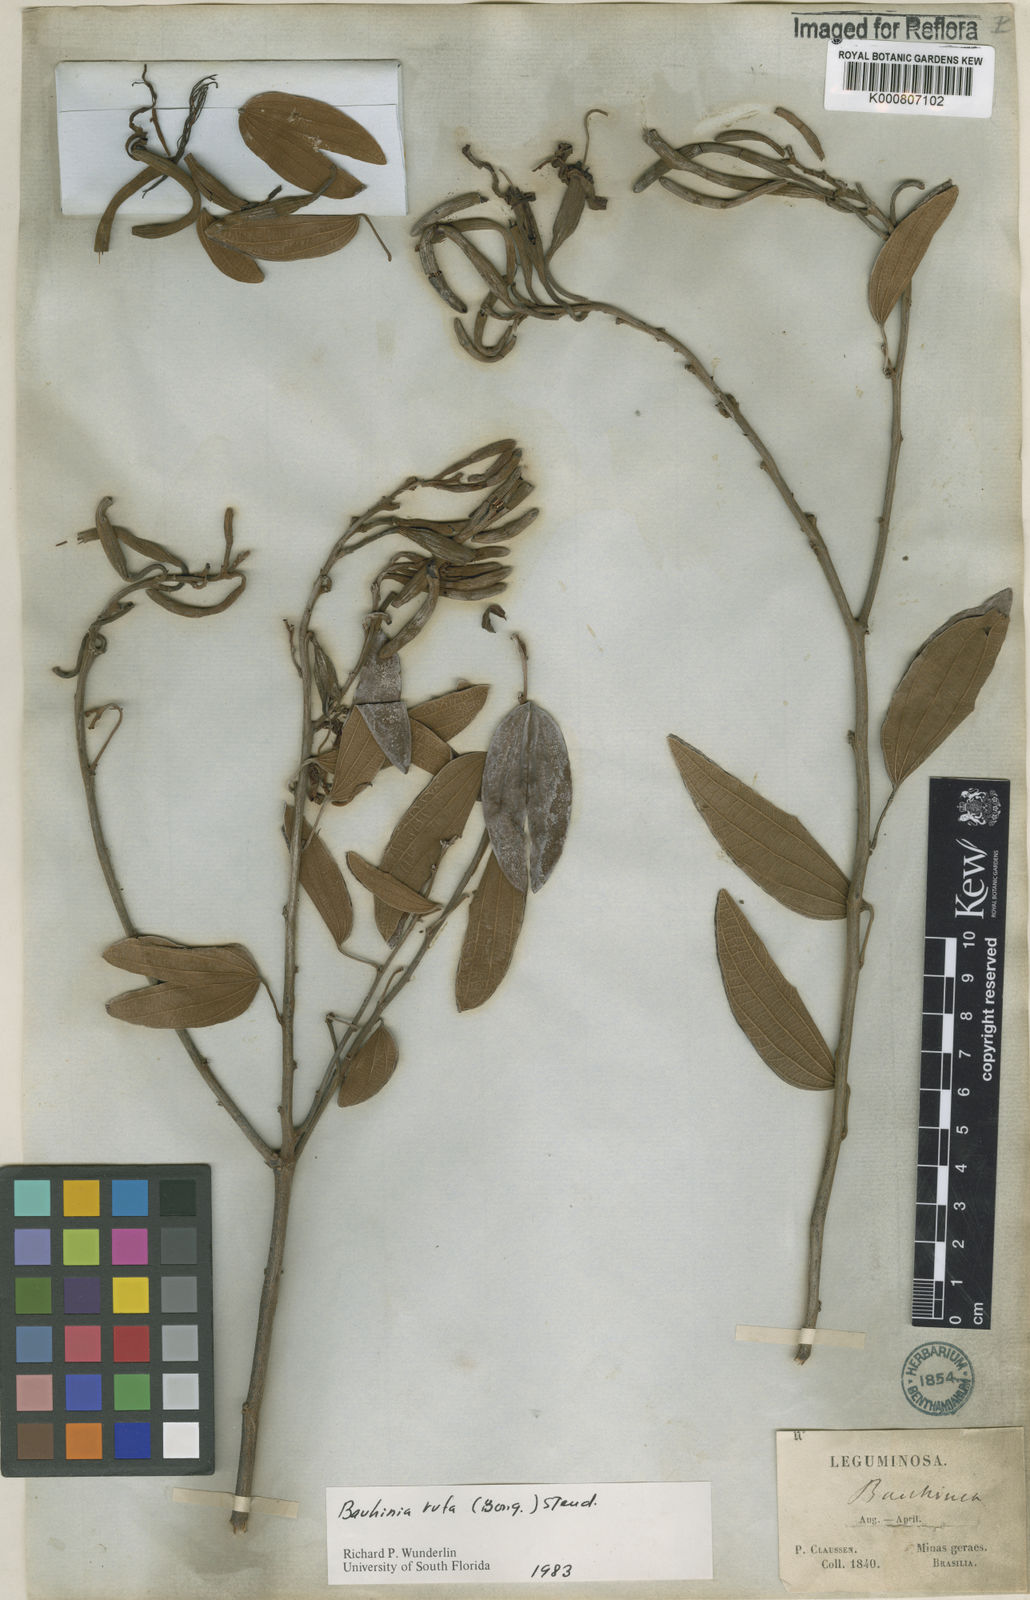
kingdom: Plantae
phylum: Tracheophyta
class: Magnoliopsida
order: Fabales
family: Fabaceae
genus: Bauhinia
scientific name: Bauhinia rufa
